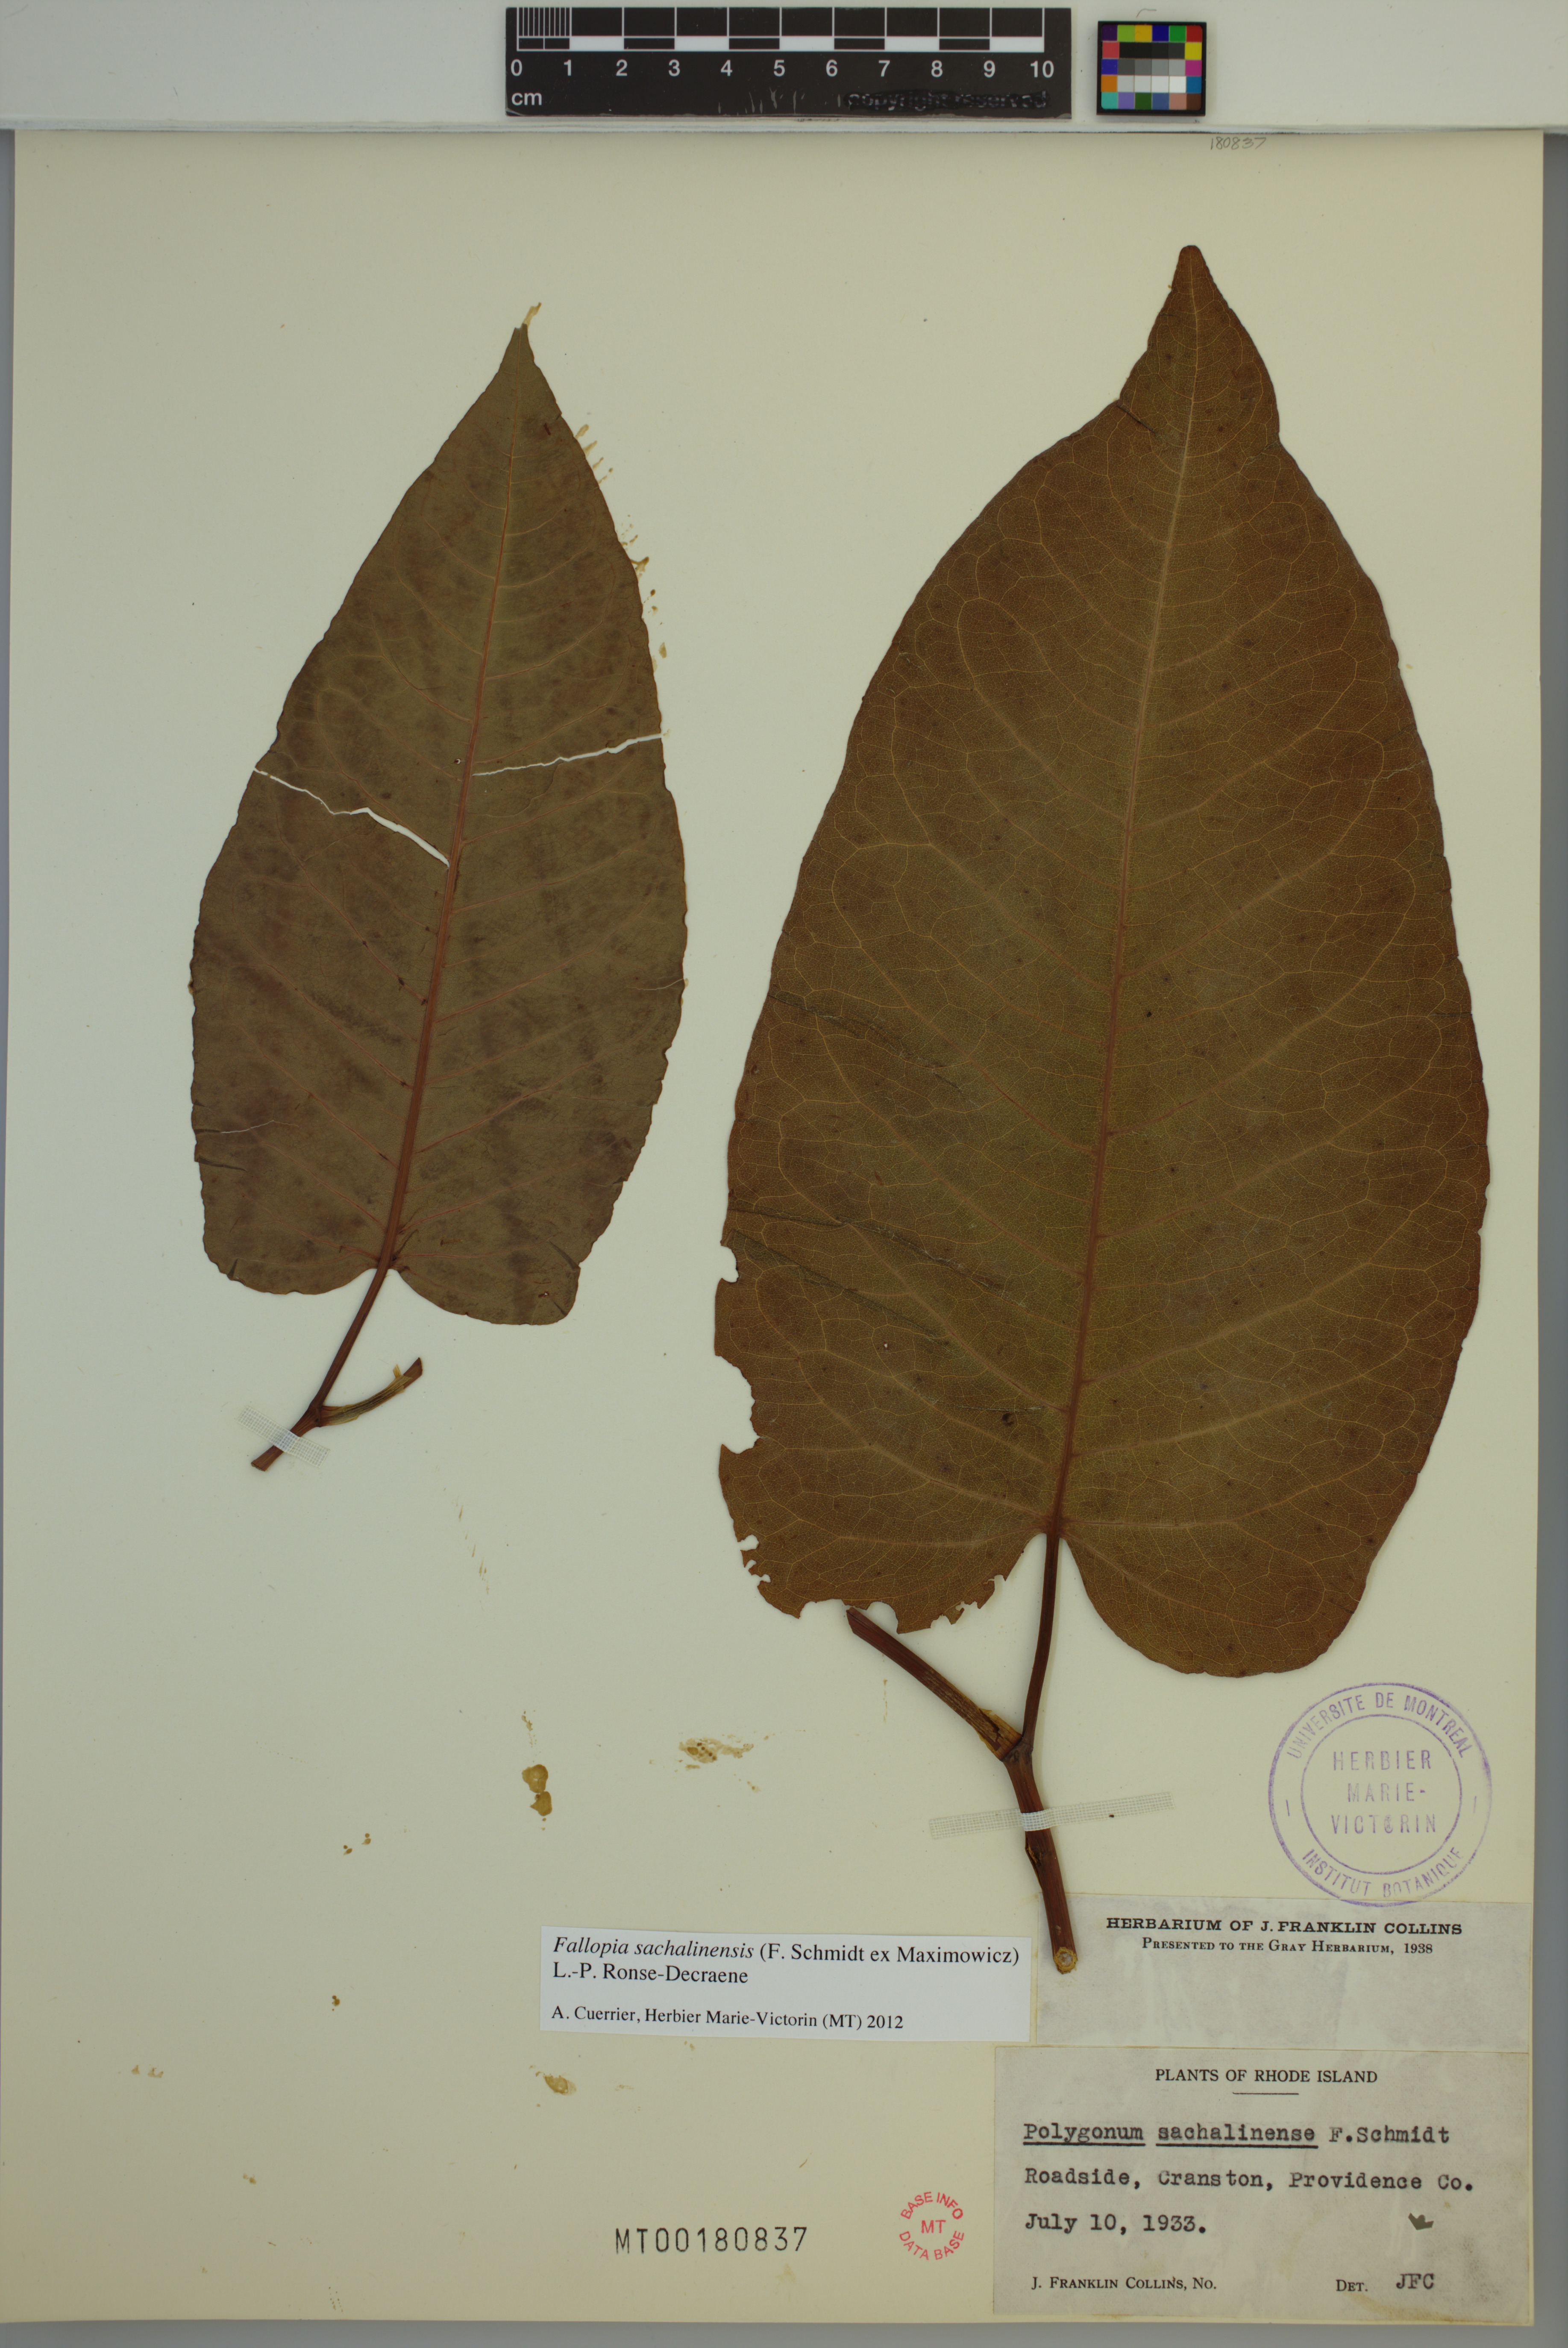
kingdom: Plantae
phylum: Tracheophyta
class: Magnoliopsida
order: Caryophyllales
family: Polygonaceae
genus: Reynoutria
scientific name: Reynoutria sachalinensis
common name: Giant knotweed
